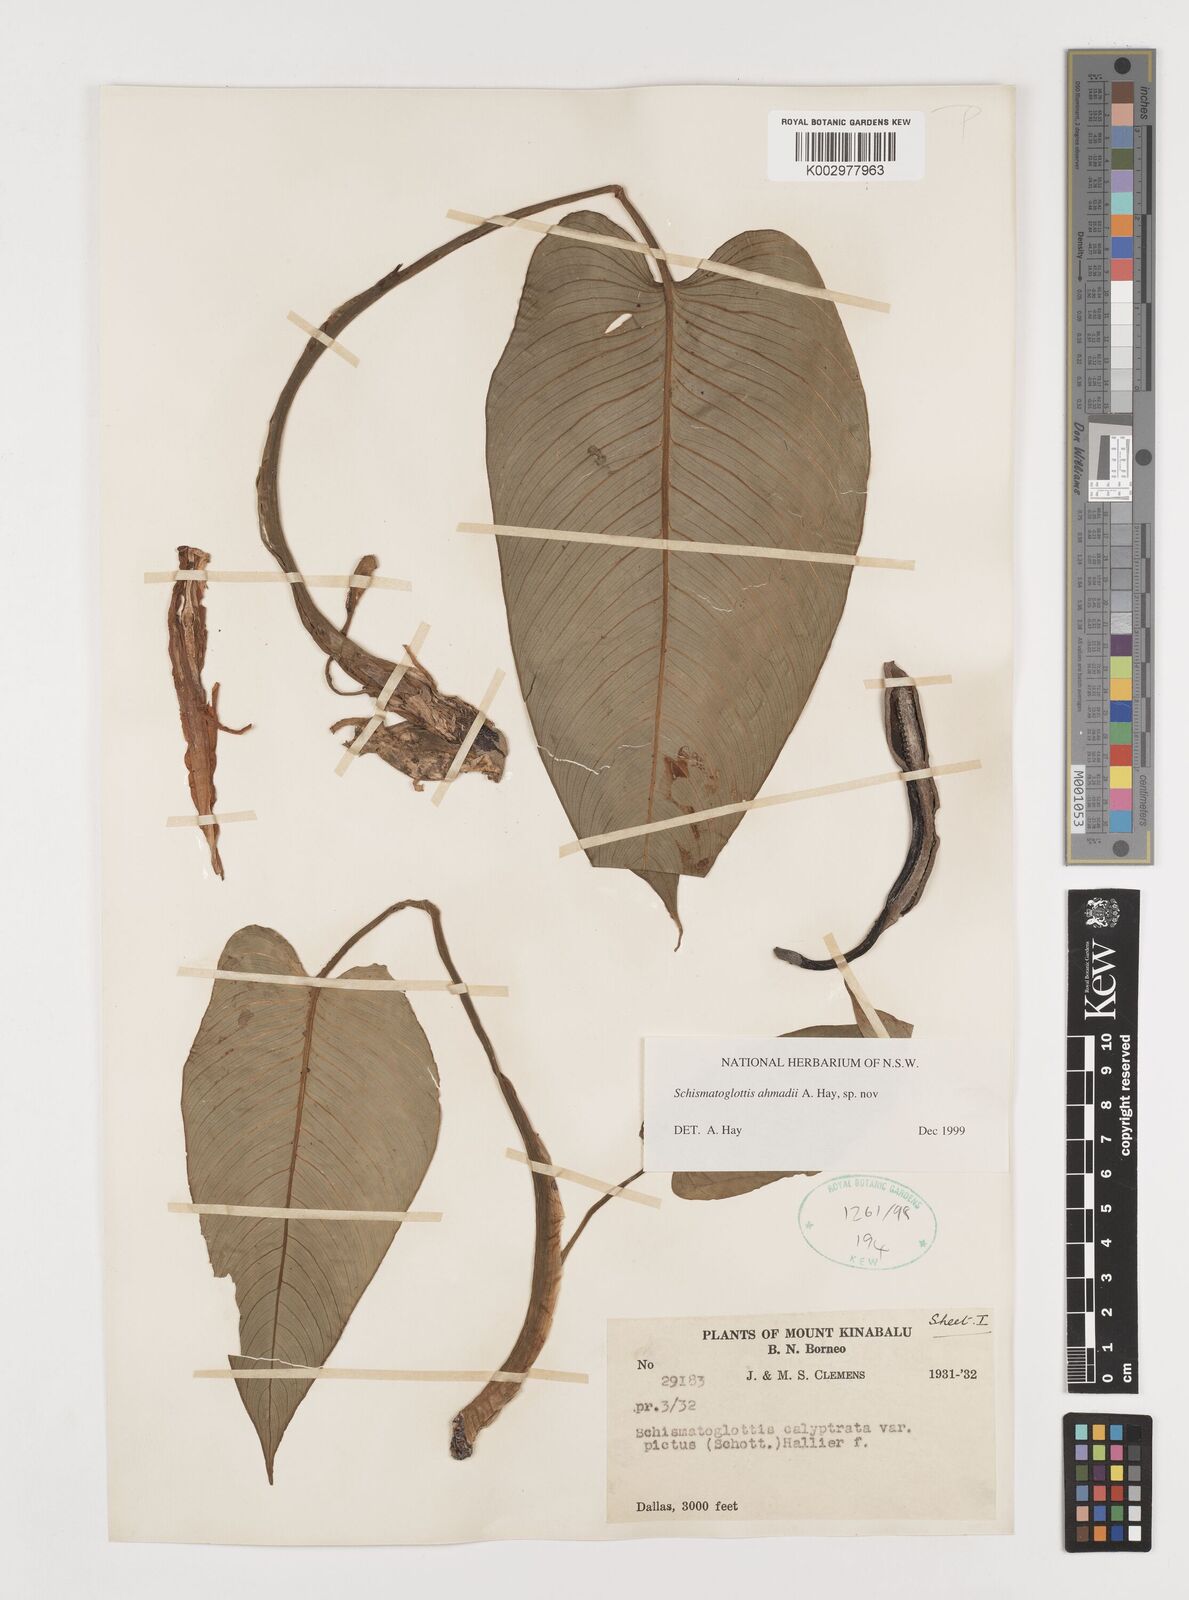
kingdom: Plantae
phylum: Tracheophyta
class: Liliopsida
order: Alismatales
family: Araceae
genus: Schismatoglottis
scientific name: Schismatoglottis ahmadii
